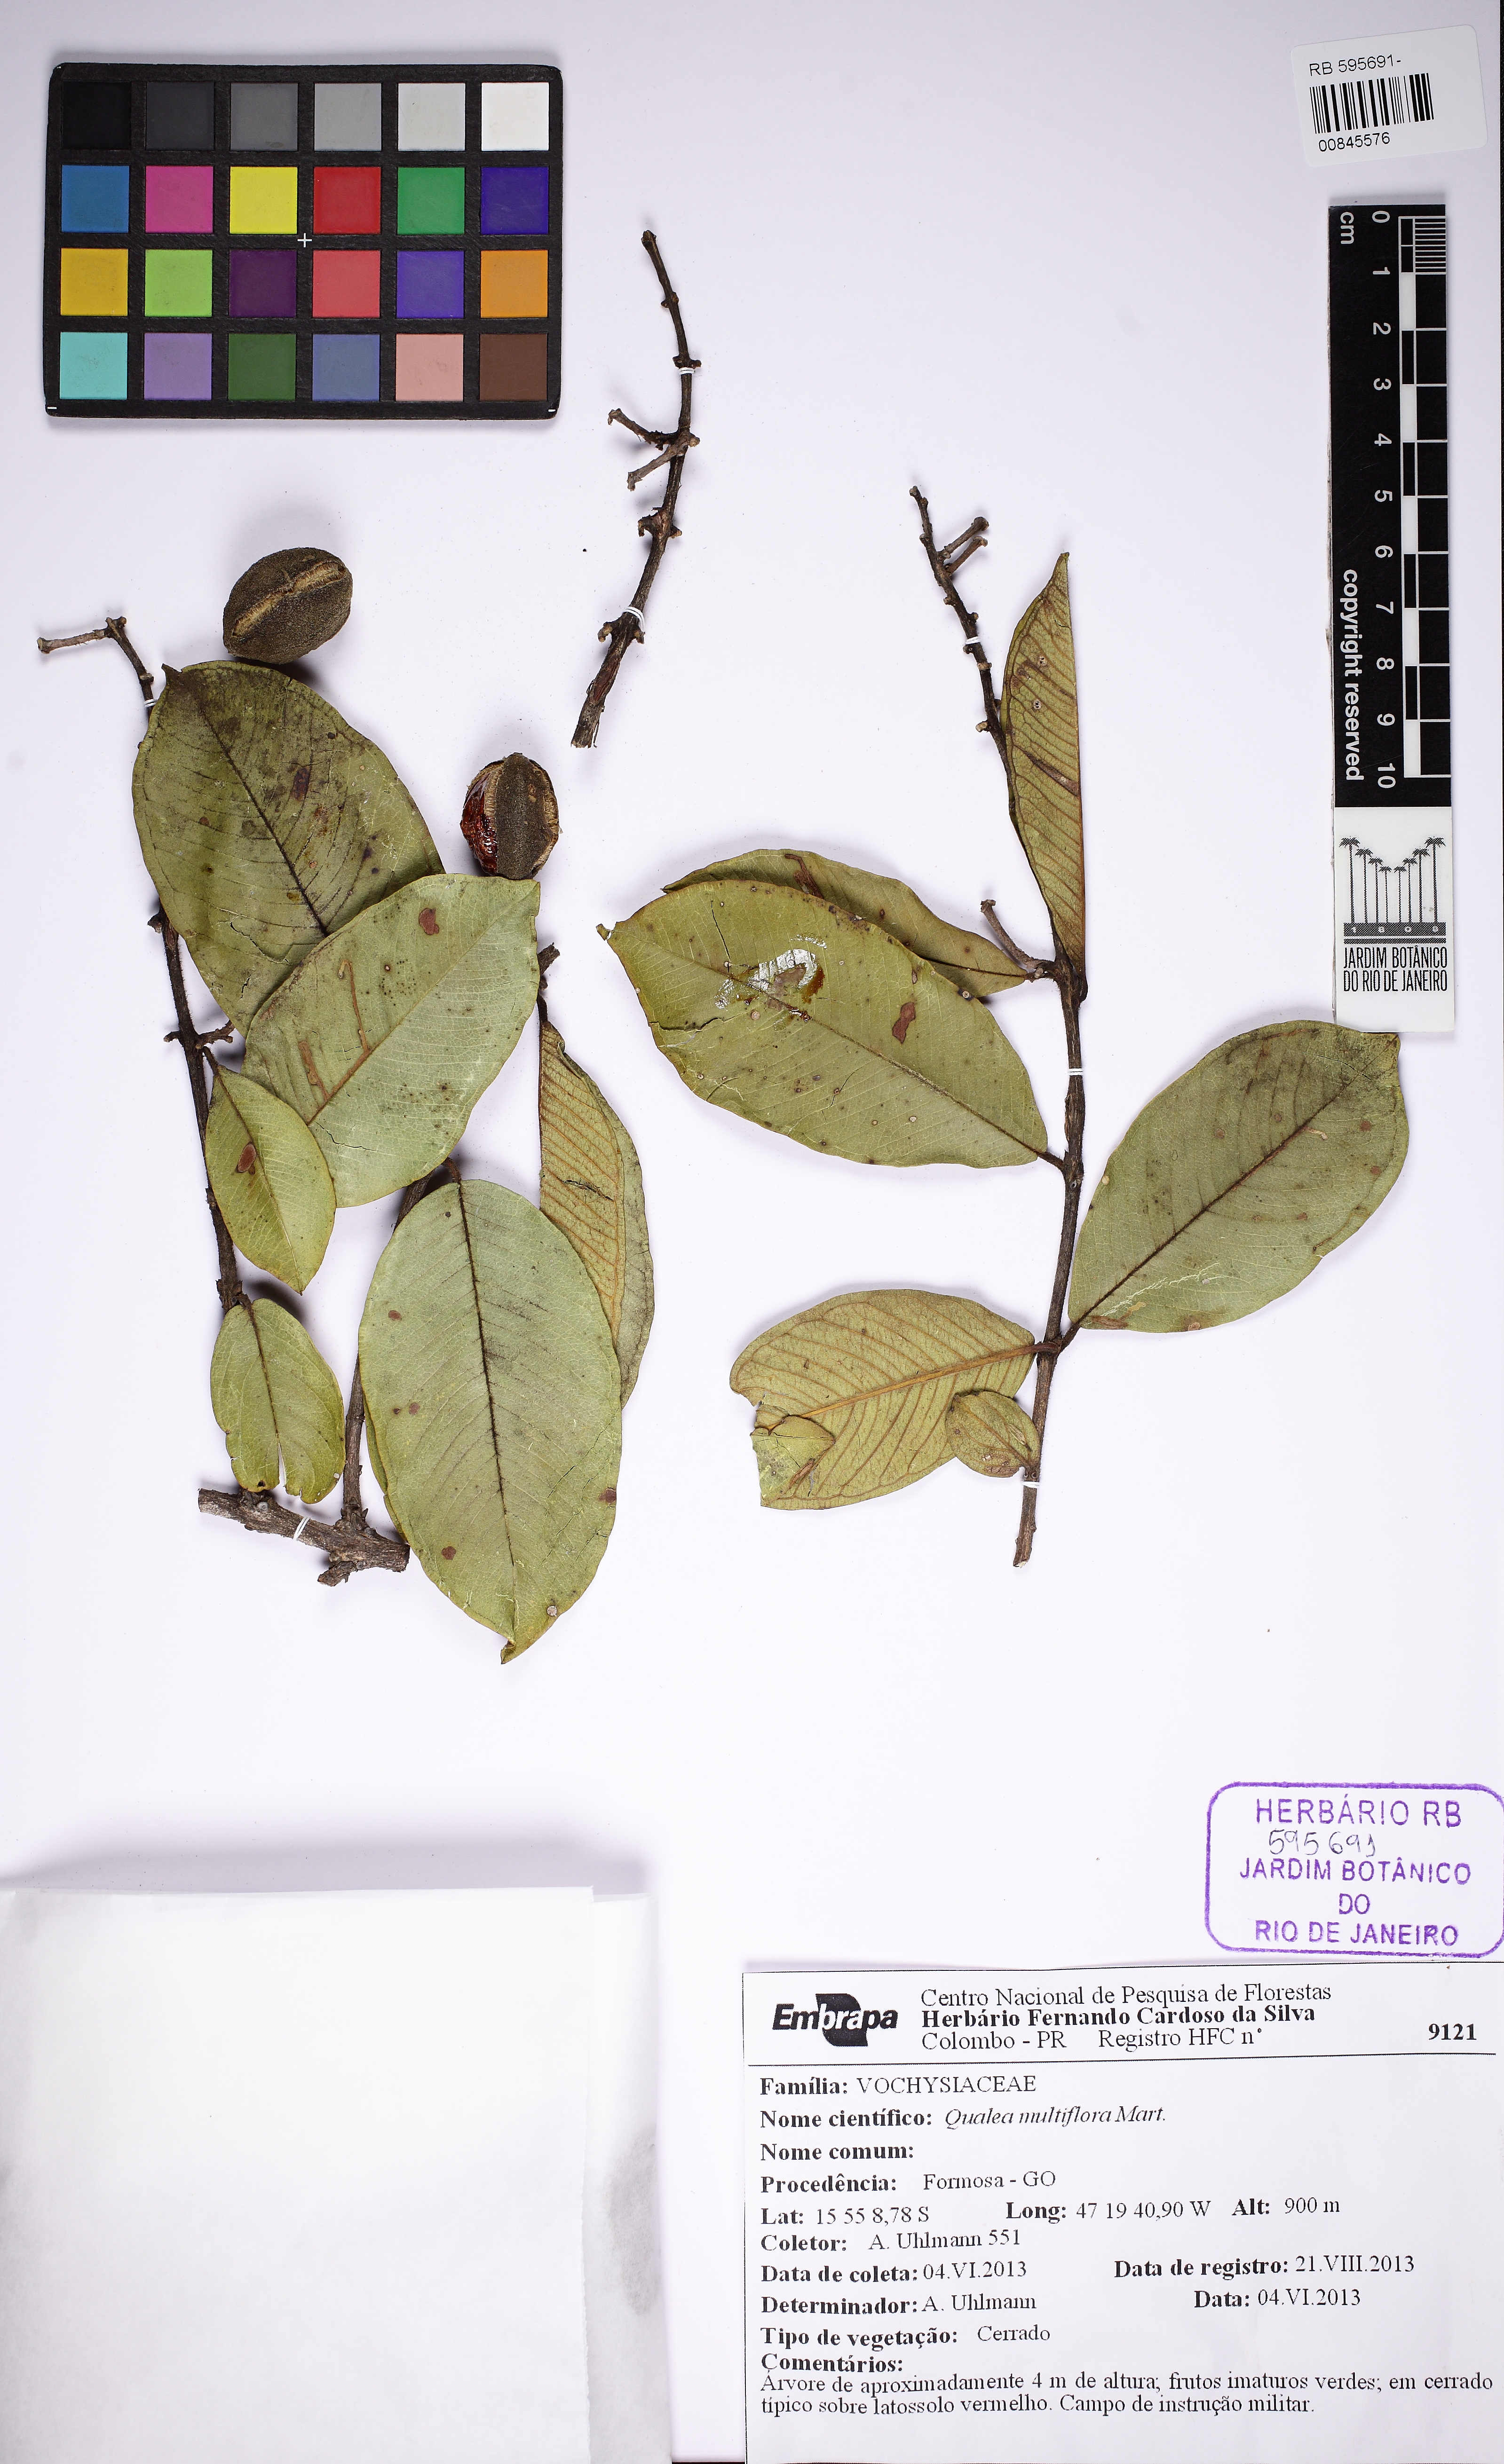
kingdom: Plantae
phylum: Tracheophyta
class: Magnoliopsida
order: Myrtales
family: Vochysiaceae
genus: Qualea
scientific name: Qualea multiflora
